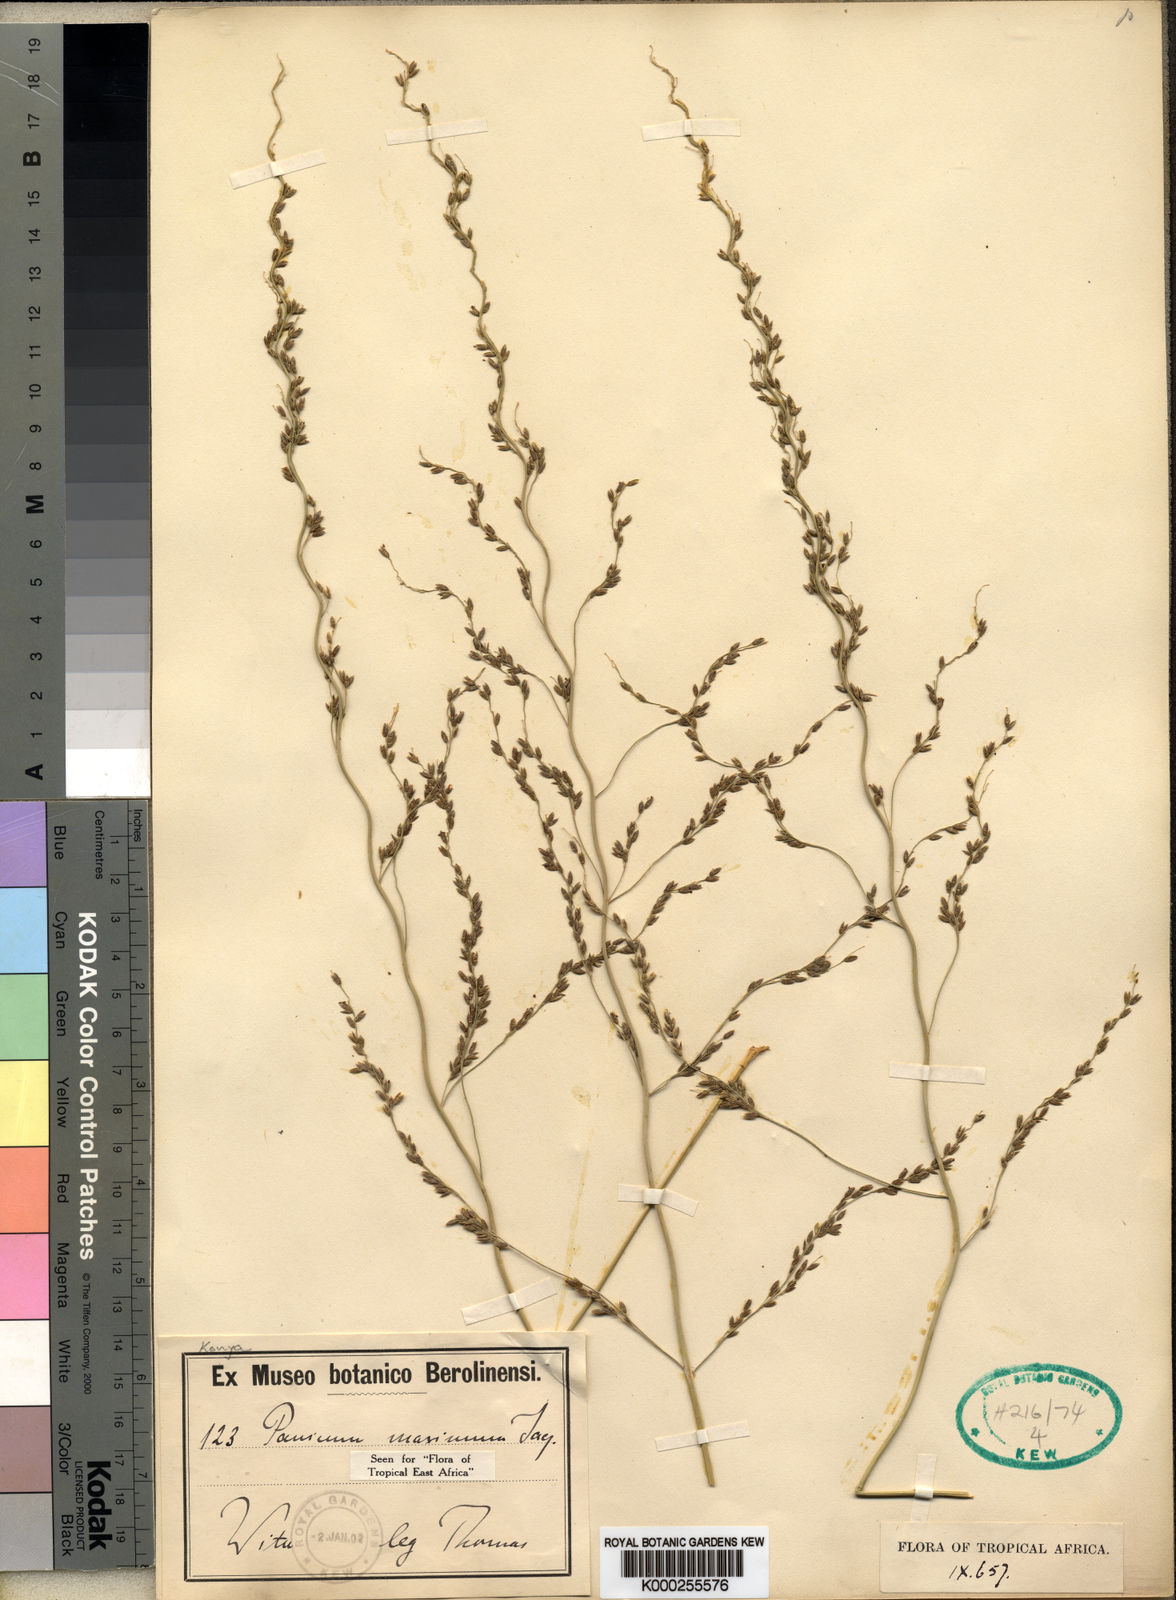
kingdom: Plantae
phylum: Tracheophyta
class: Liliopsida
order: Poales
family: Poaceae
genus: Megathyrsus
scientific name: Megathyrsus maximus
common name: Guineagrass
